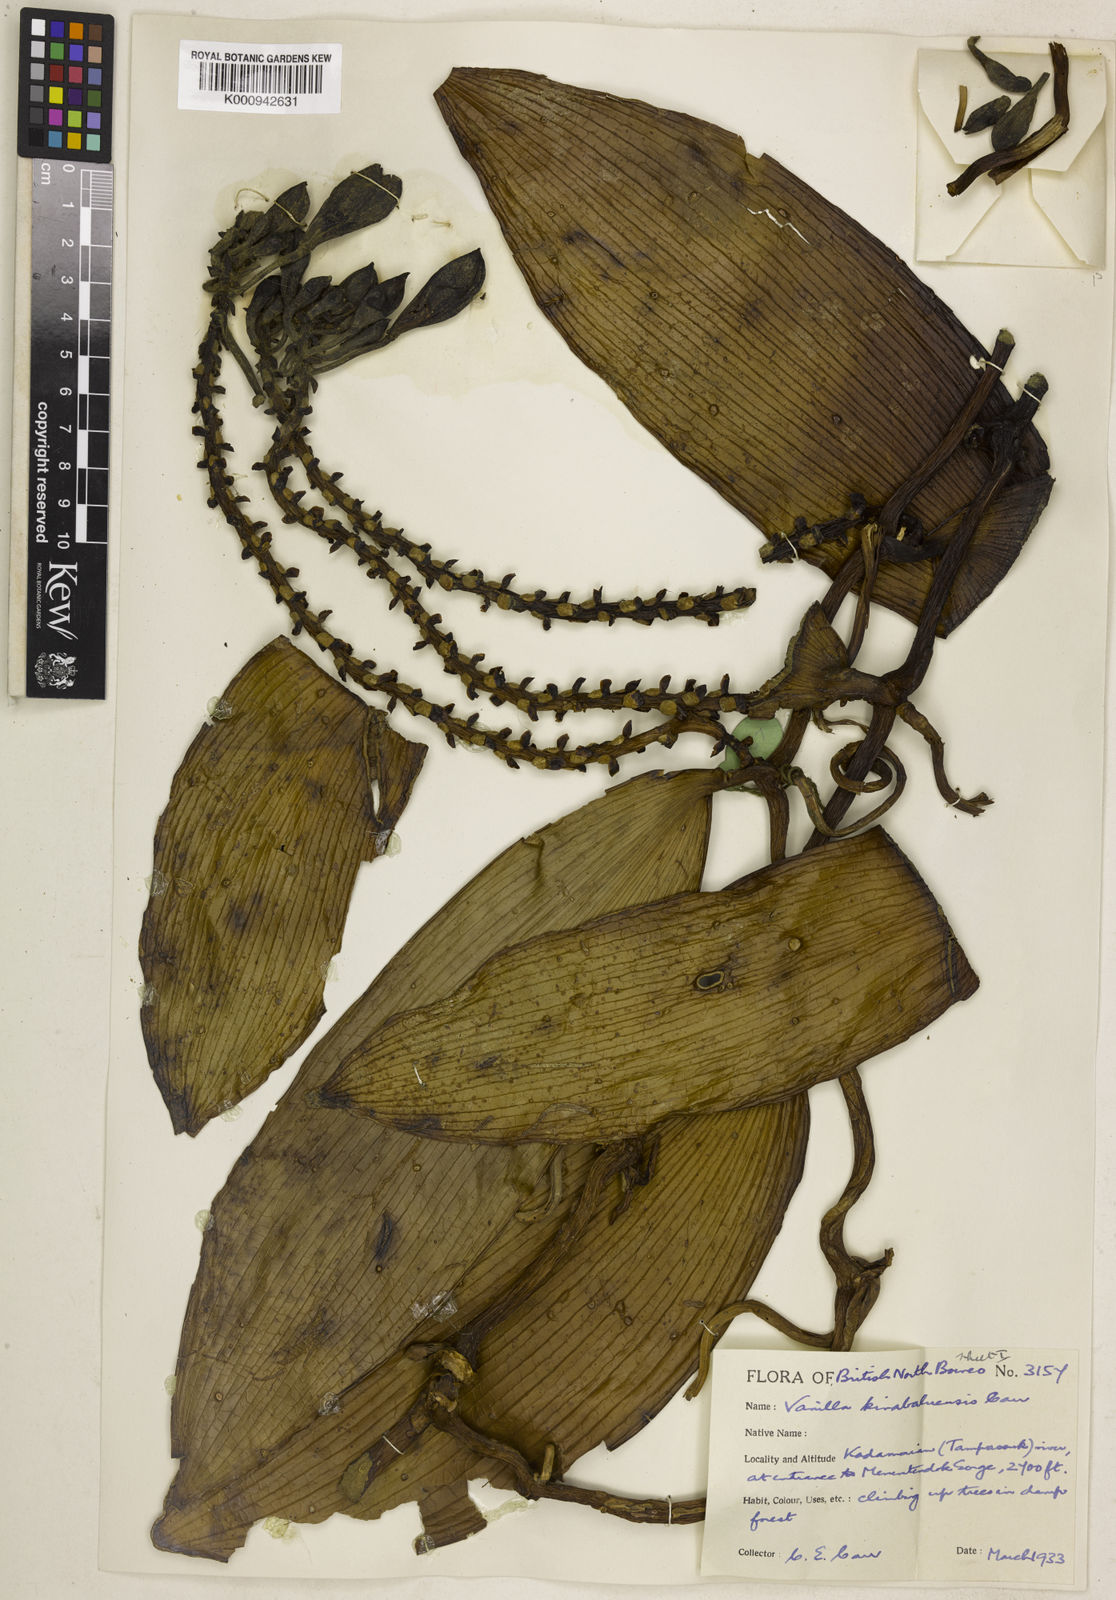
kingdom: Plantae
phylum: Tracheophyta
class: Liliopsida
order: Asparagales
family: Orchidaceae
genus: Vanilla
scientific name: Vanilla kinabaluensis
